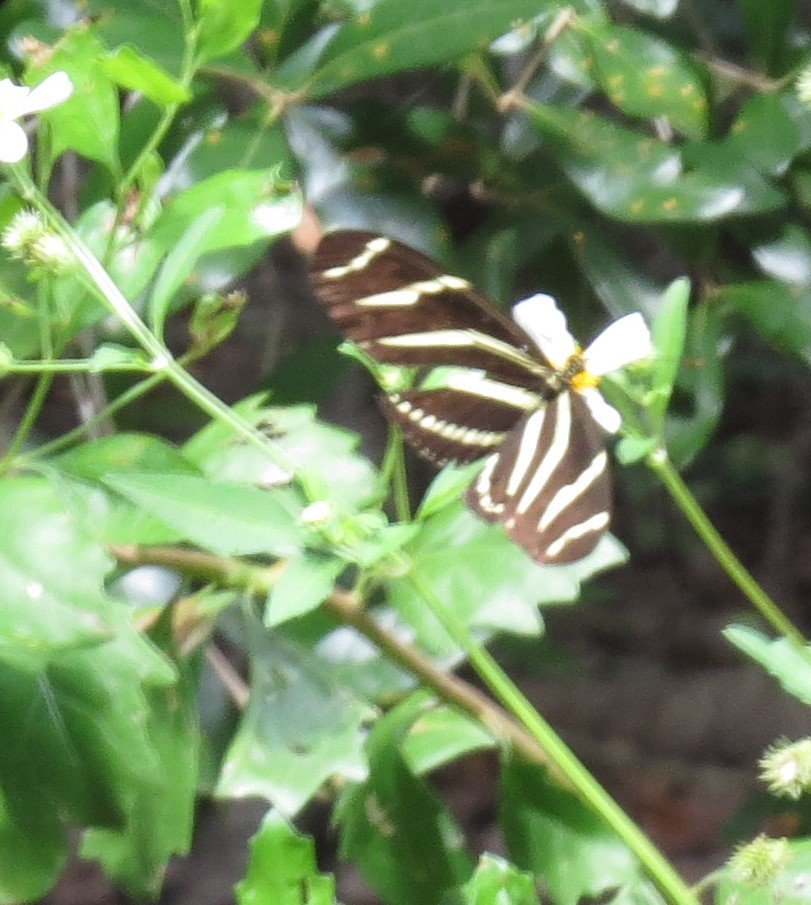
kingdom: Animalia
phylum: Arthropoda
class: Insecta
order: Lepidoptera
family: Nymphalidae
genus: Heliconius
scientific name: Heliconius charithonia
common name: Zebra Longwing
